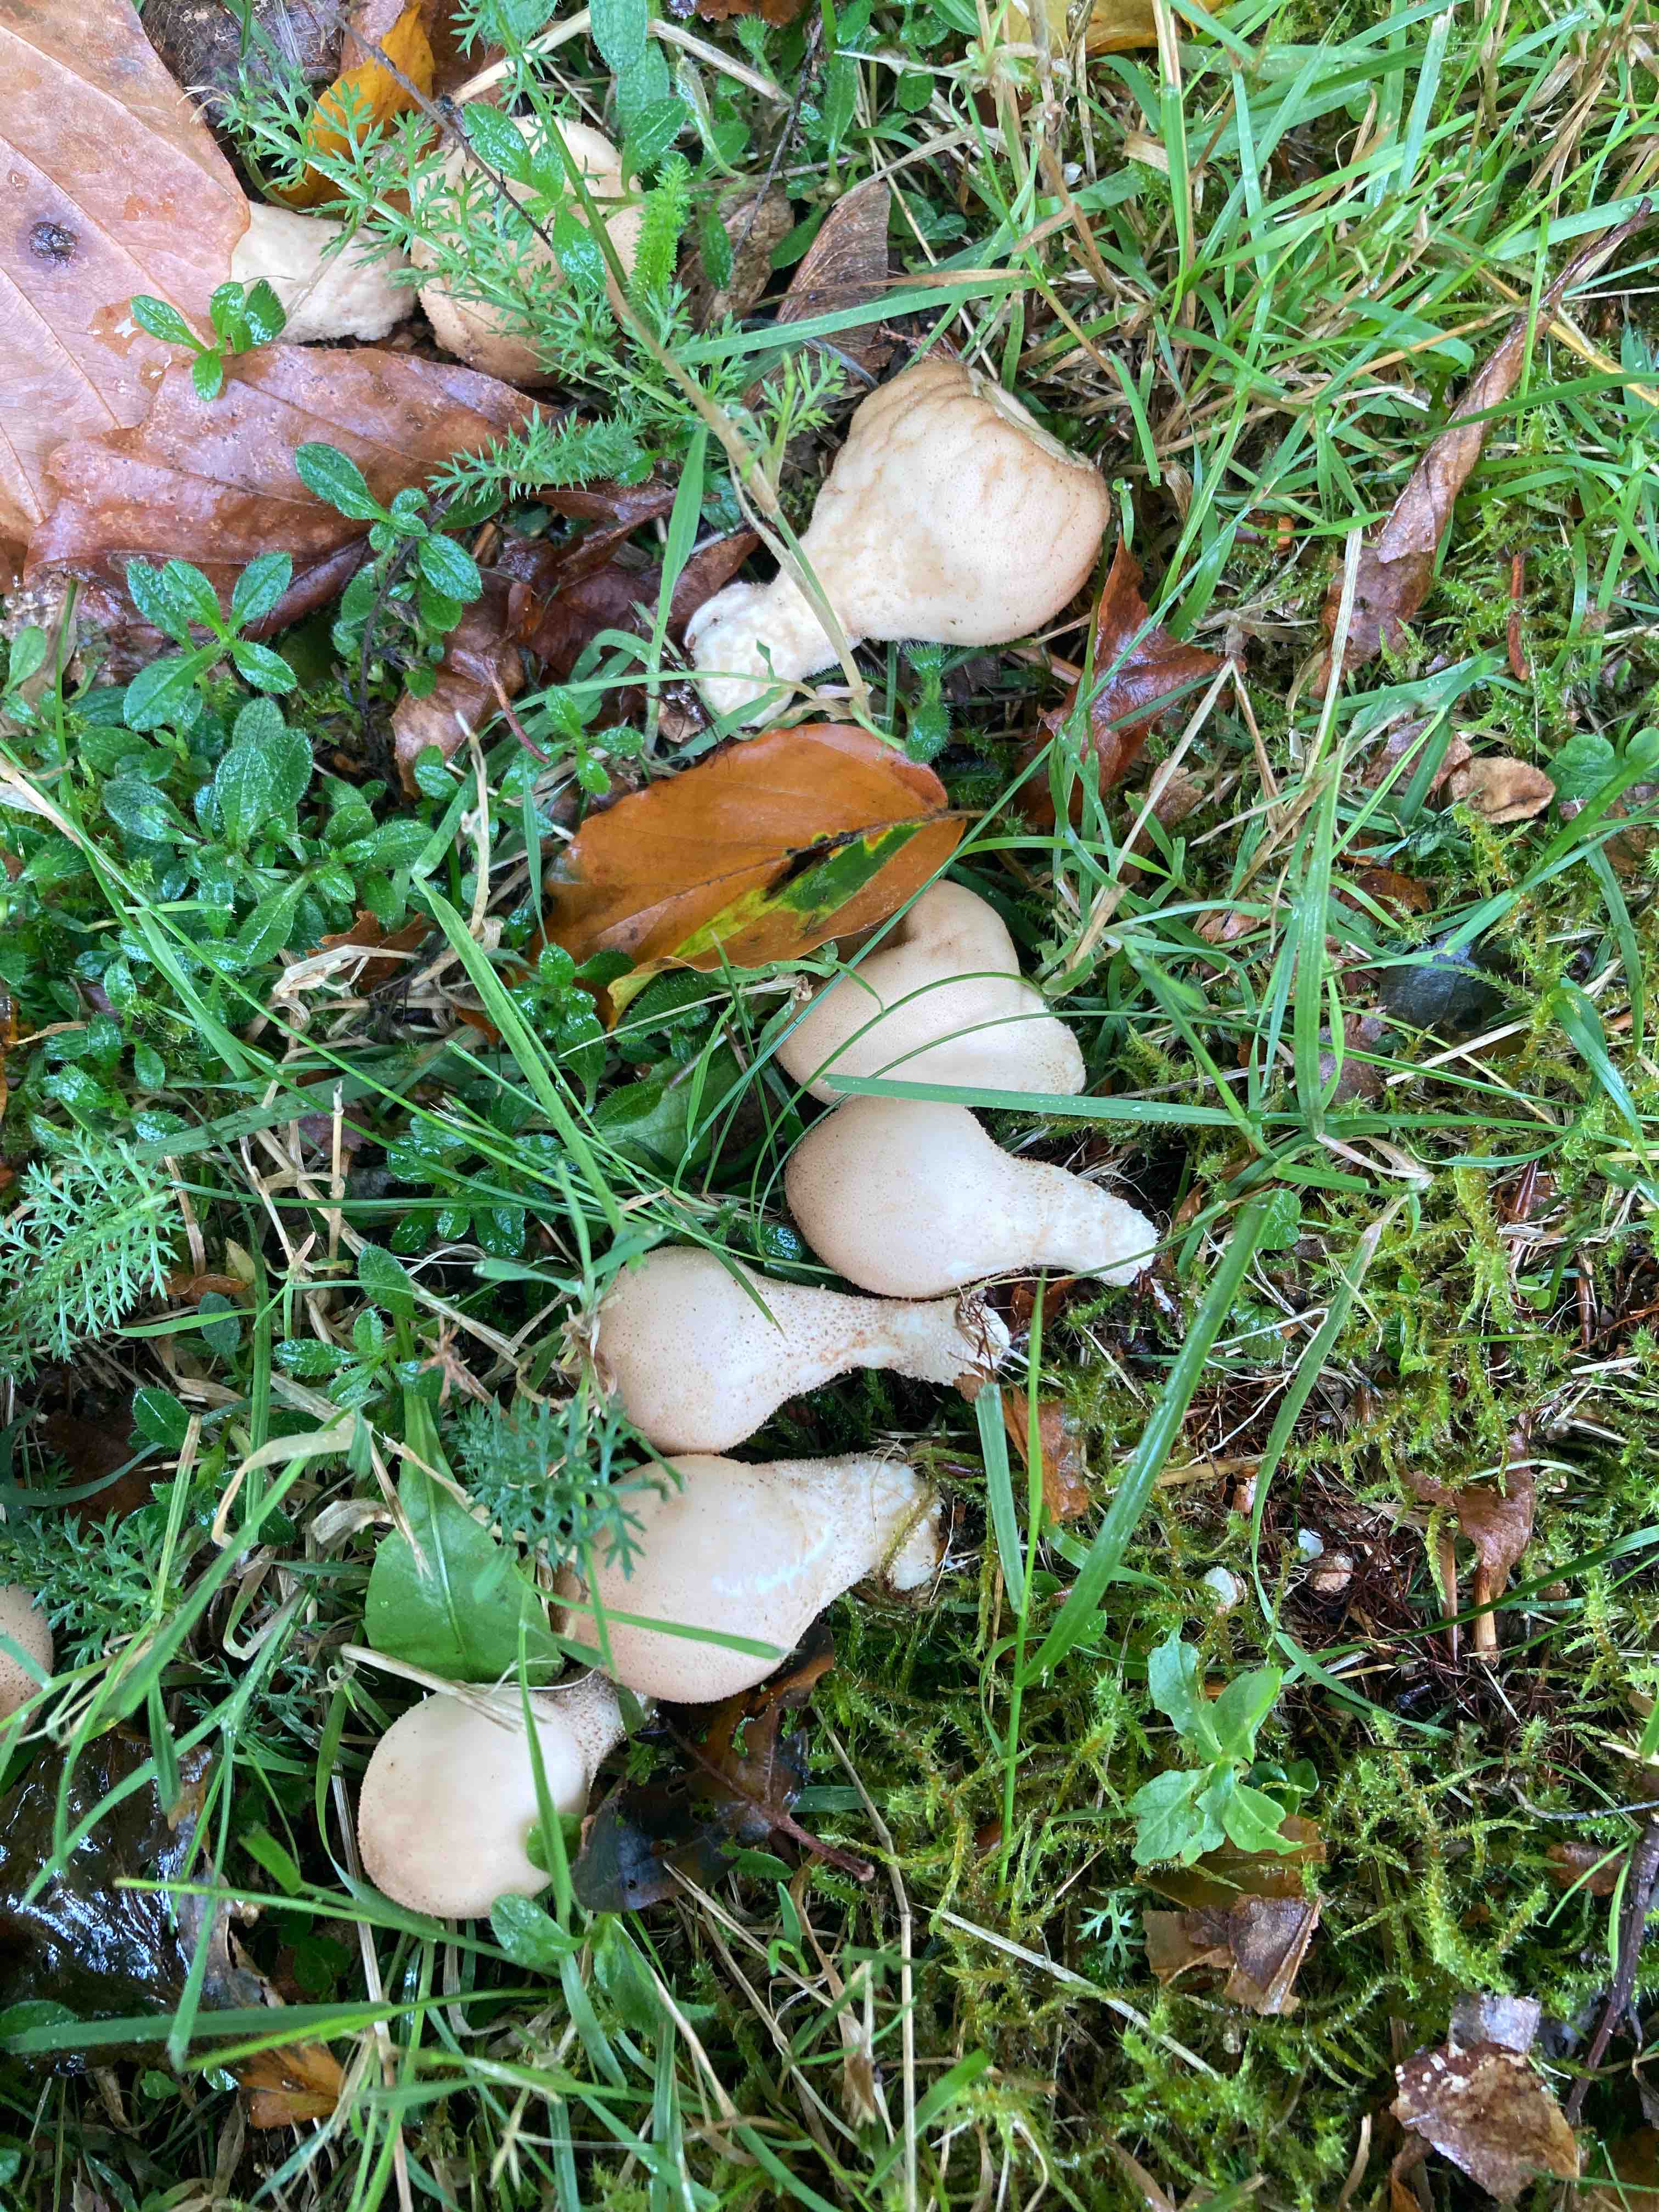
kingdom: Fungi
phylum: Basidiomycota
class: Agaricomycetes
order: Agaricales
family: Lycoperdaceae
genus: Apioperdon
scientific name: Apioperdon pyriforme
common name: pære-støvbold
